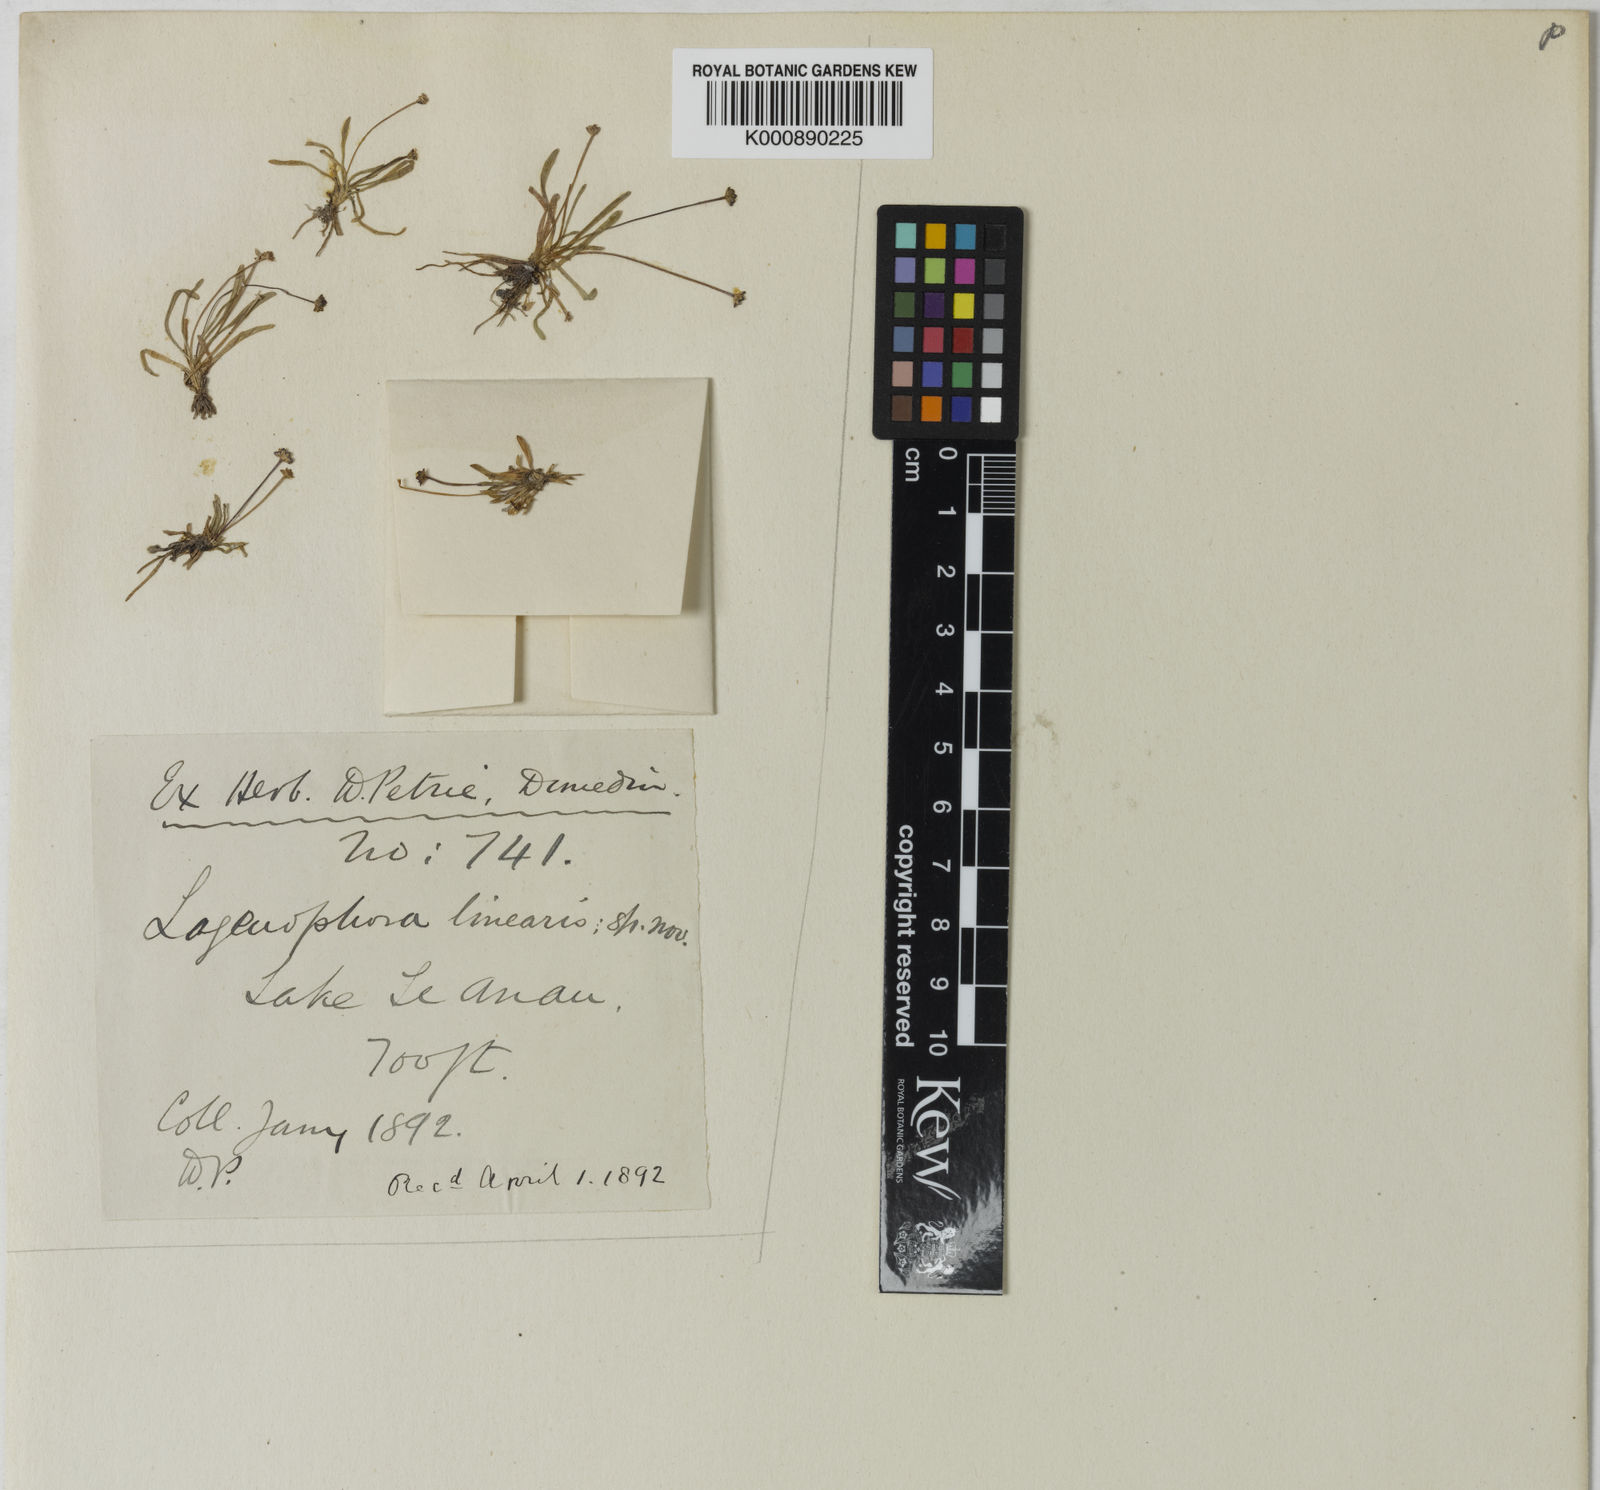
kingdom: Plantae
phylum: Tracheophyta
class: Magnoliopsida
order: Asterales
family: Asteraceae
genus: Brachyscome
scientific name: Brachyscome linearis
